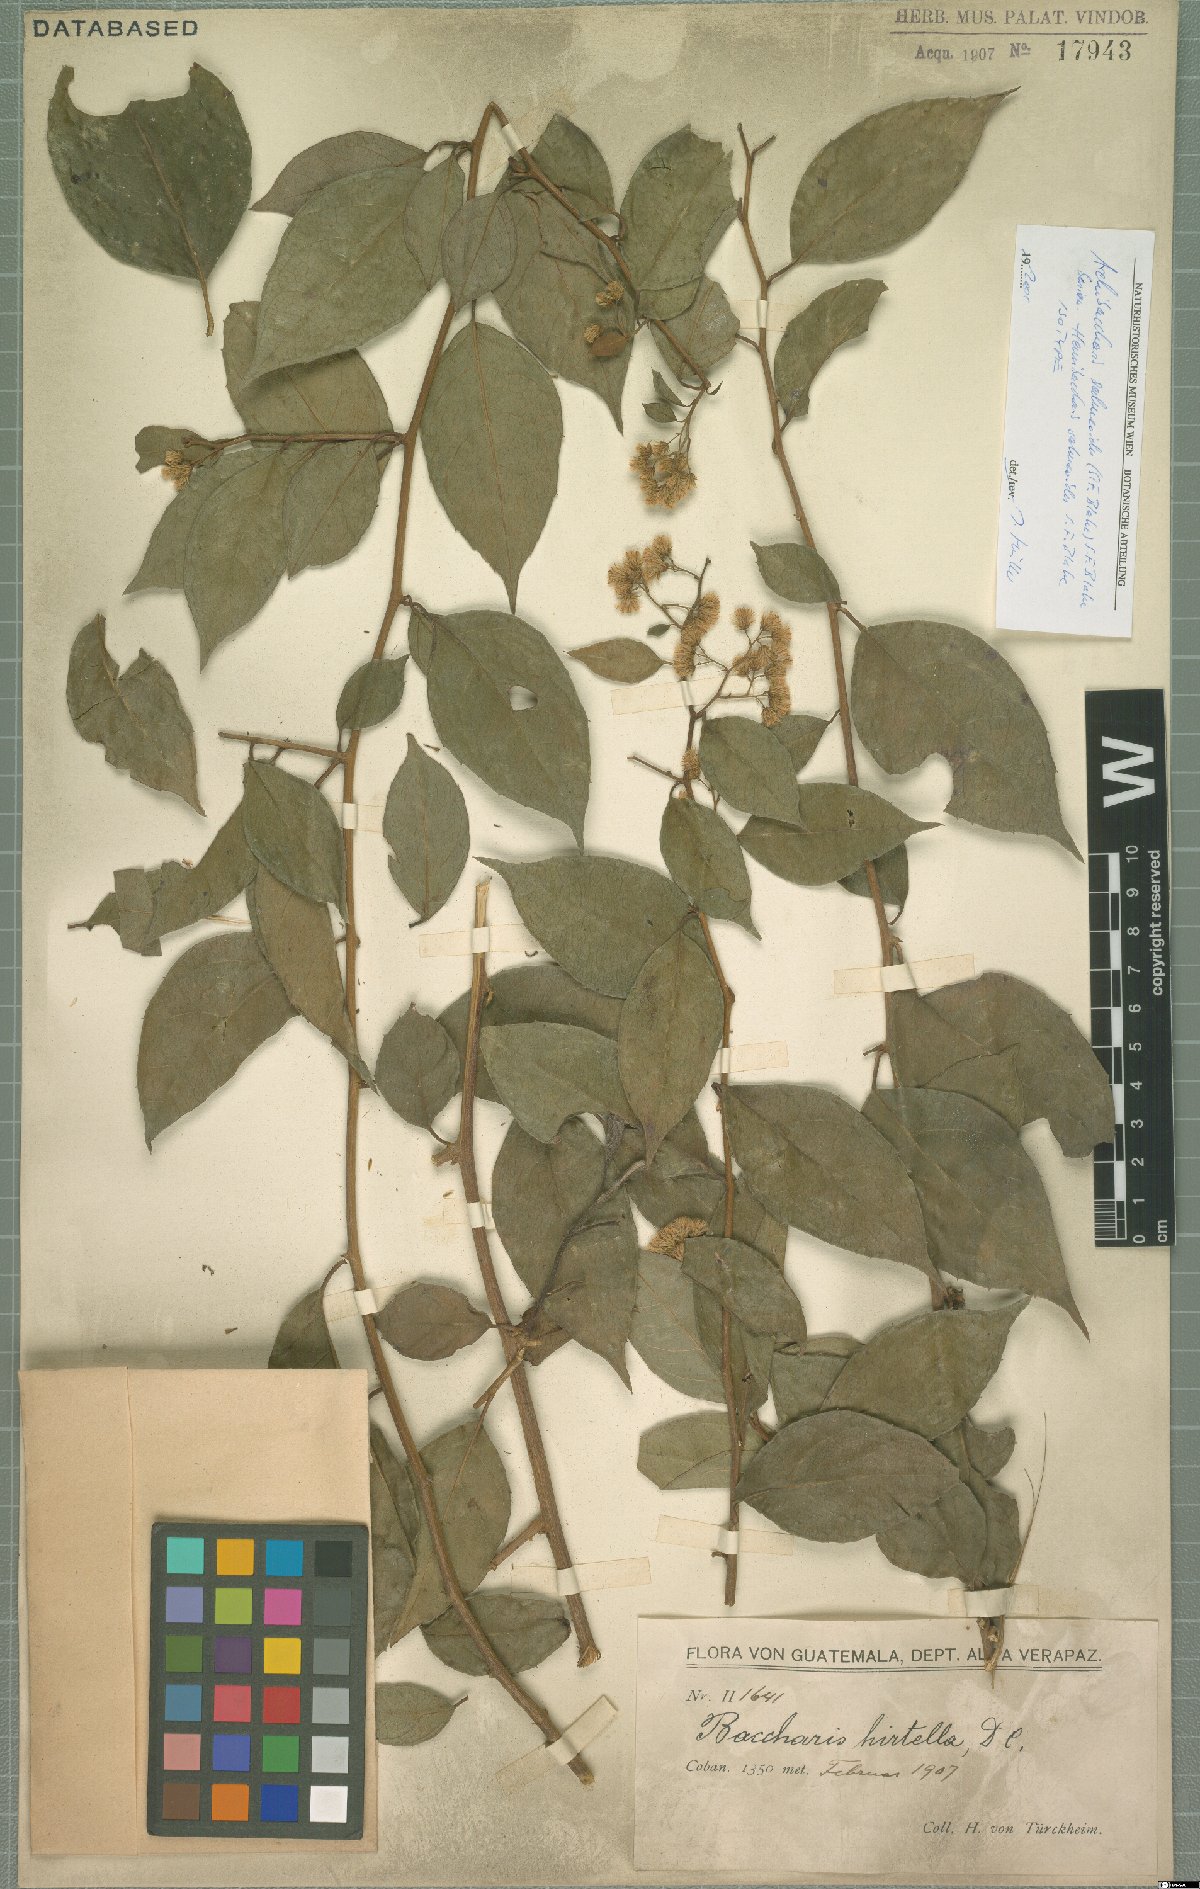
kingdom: Plantae
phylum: Tracheophyta
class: Magnoliopsida
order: Asterales
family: Asteraceae
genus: Archibaccharis
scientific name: Archibaccharis salmeoides
